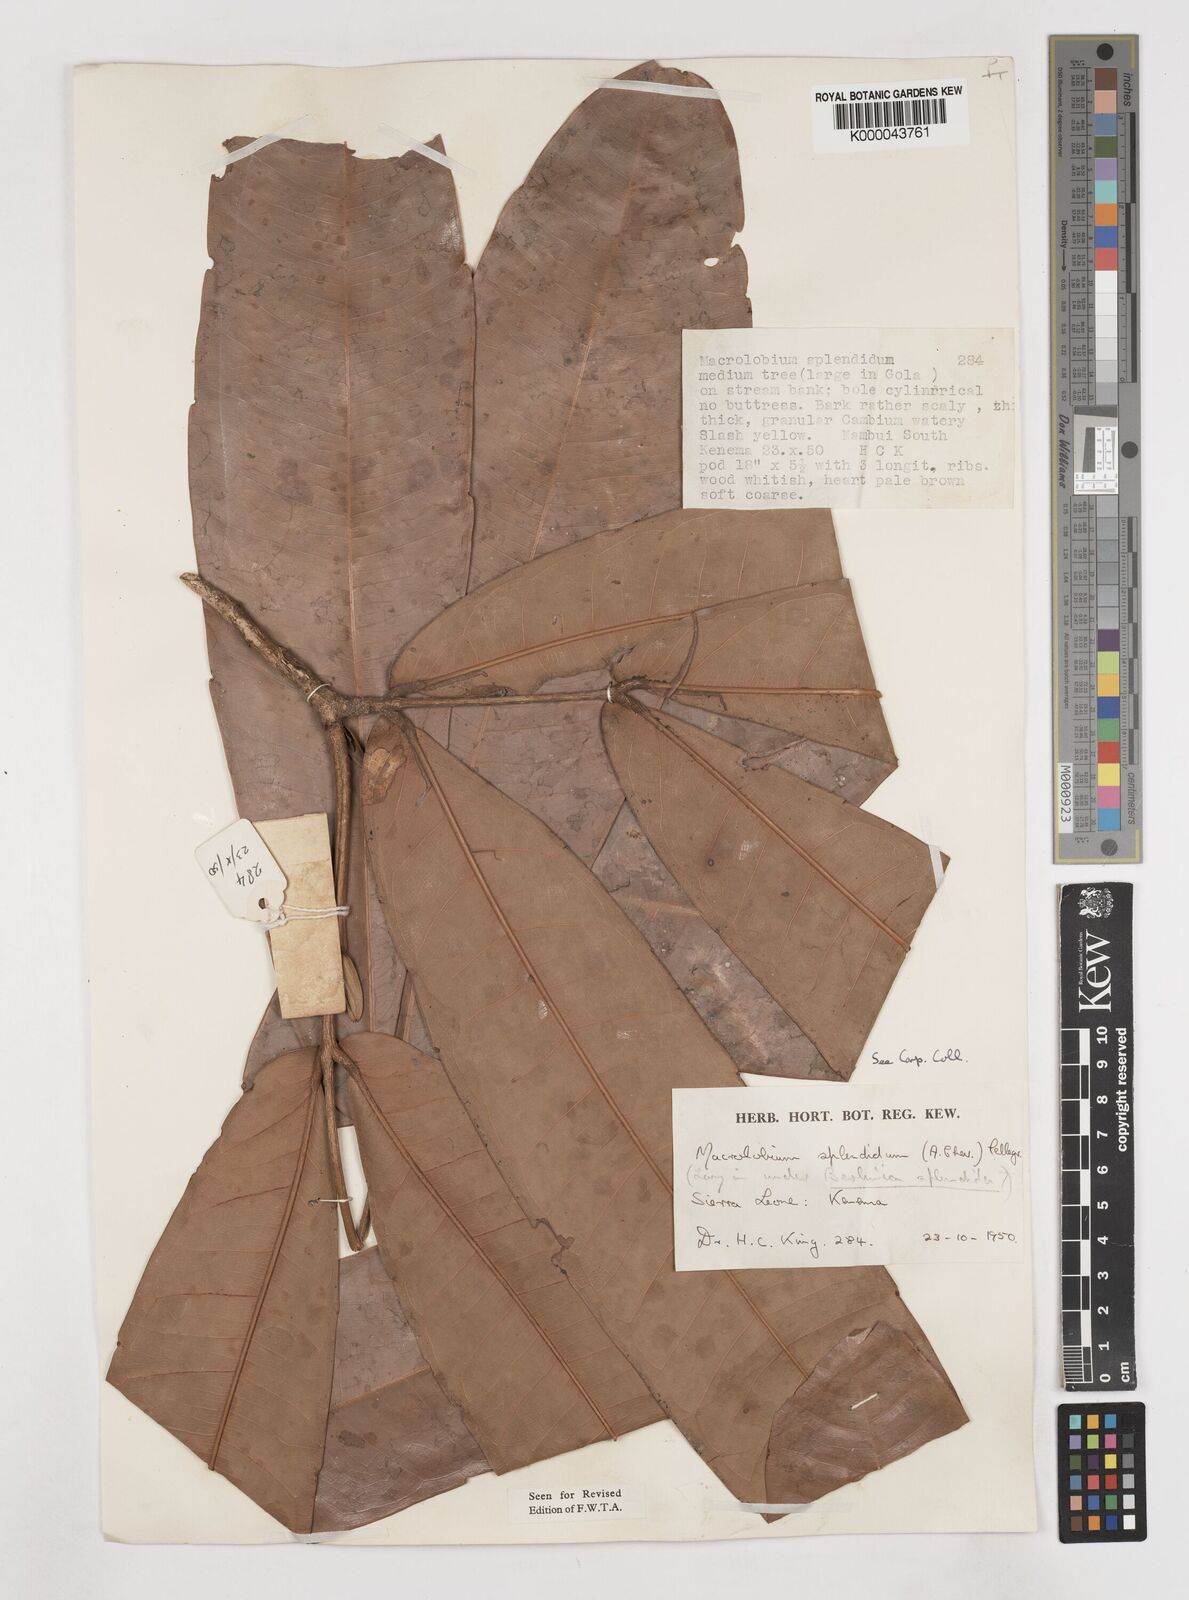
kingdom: Plantae
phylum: Tracheophyta
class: Magnoliopsida
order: Fabales
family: Fabaceae
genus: Gilbertiodendron
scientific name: Gilbertiodendron
